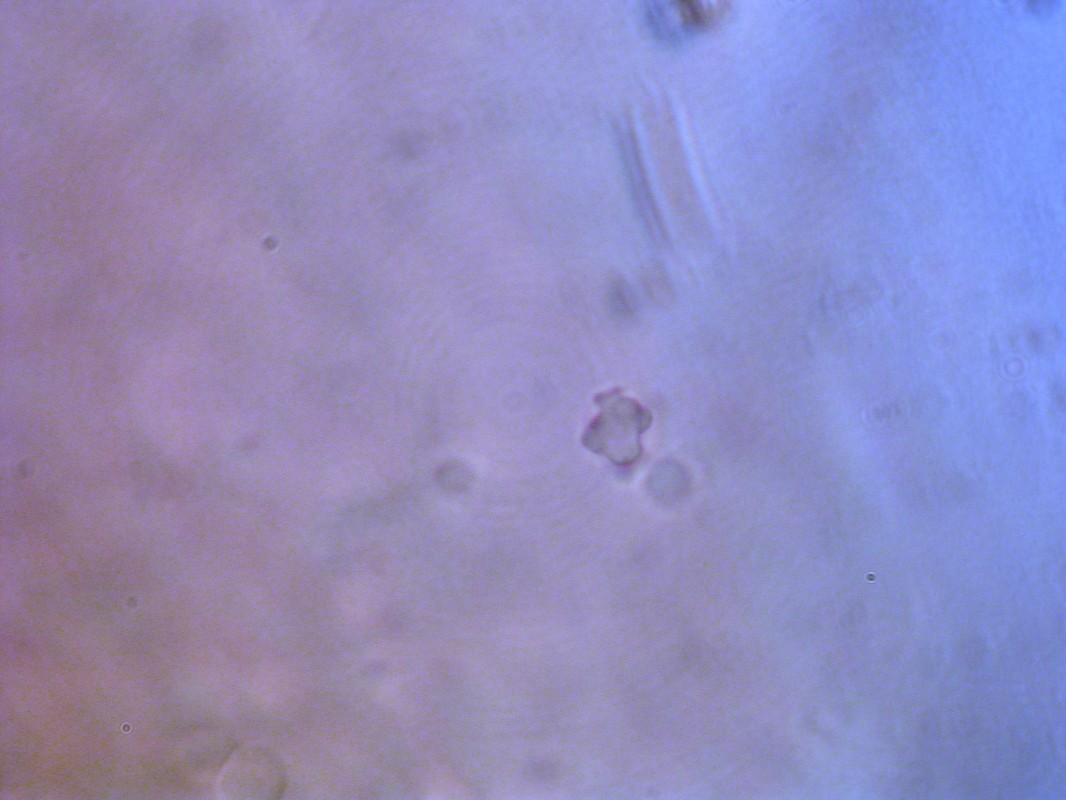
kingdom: Fungi
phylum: Basidiomycota
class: Agaricomycetes
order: Thelephorales
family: Bankeraceae
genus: Hydnellum
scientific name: Hydnellum concrescens
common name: bæltet korkpigsvamp
